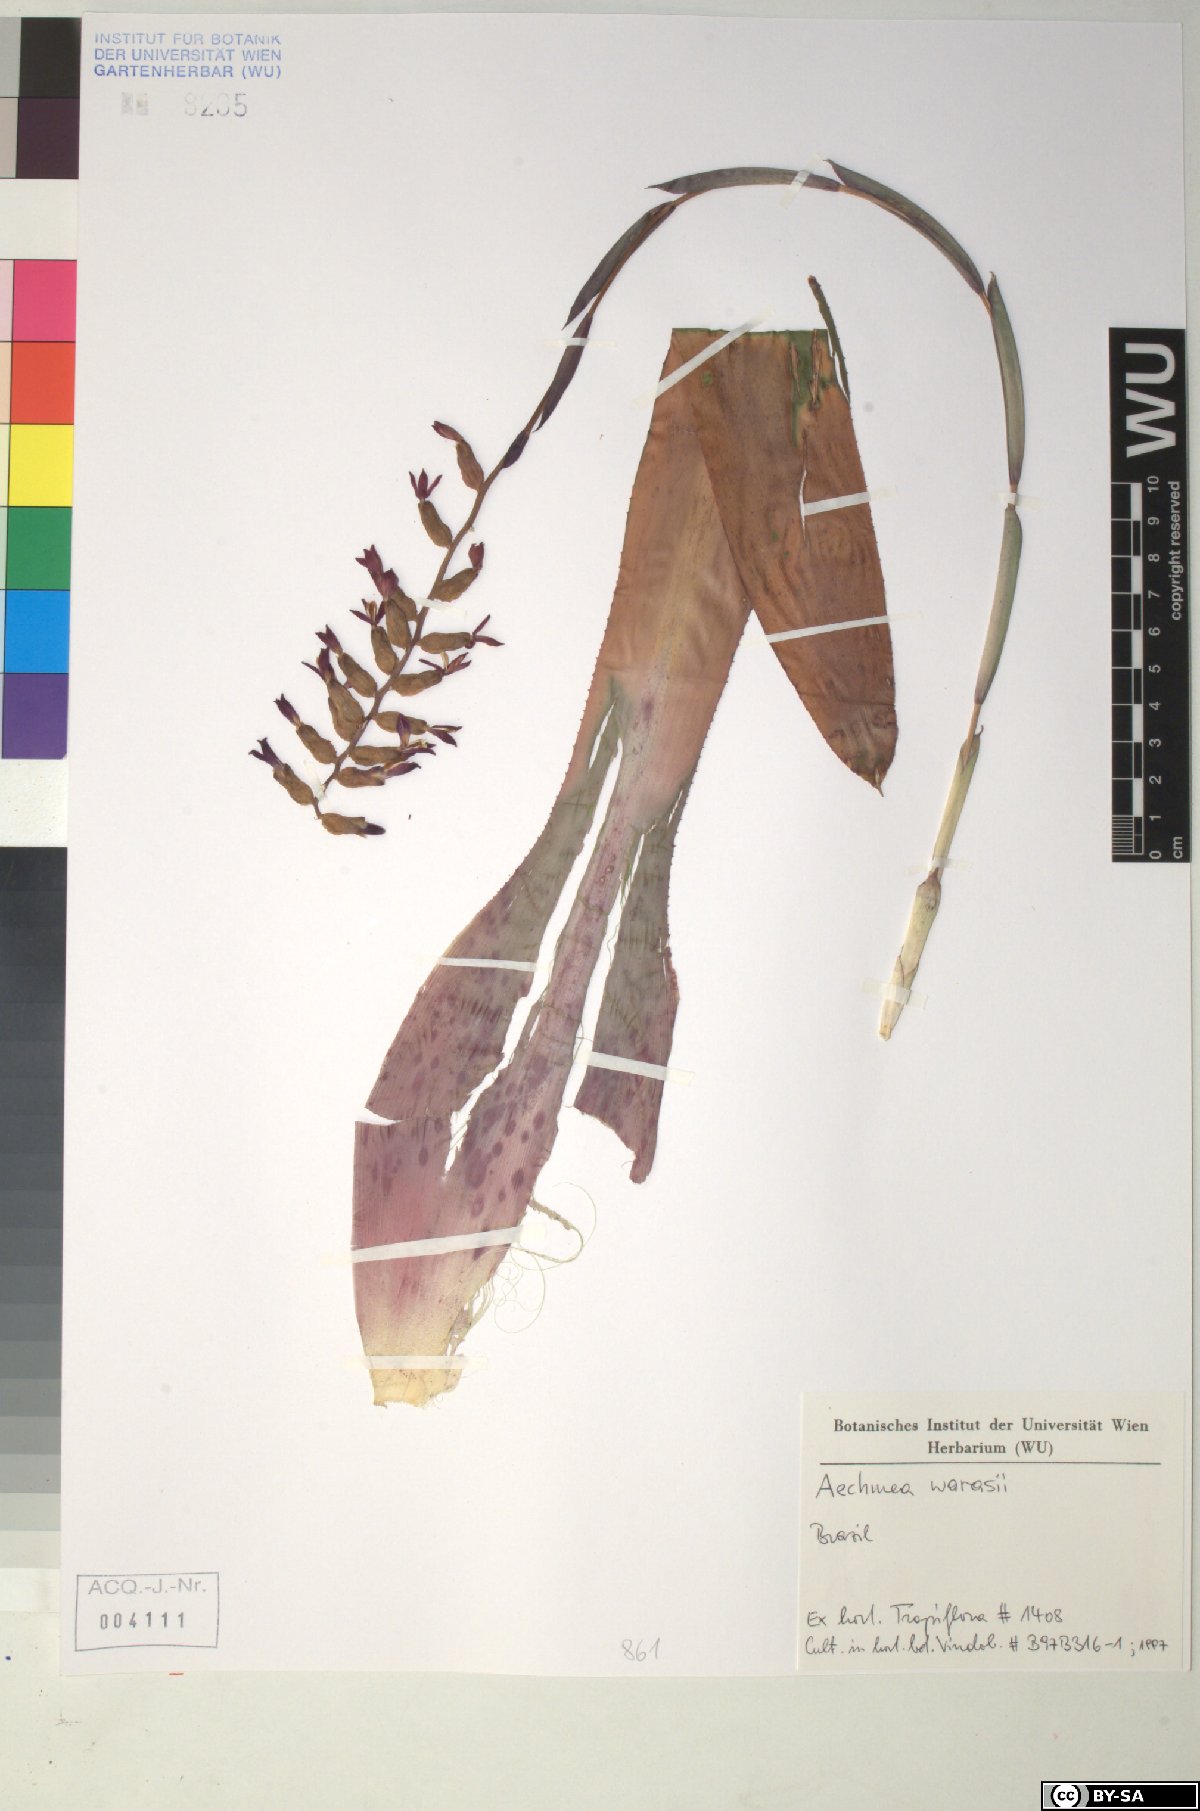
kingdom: Plantae
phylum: Tracheophyta
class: Liliopsida
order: Poales
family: Bromeliaceae
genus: Aechmea
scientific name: Aechmea
